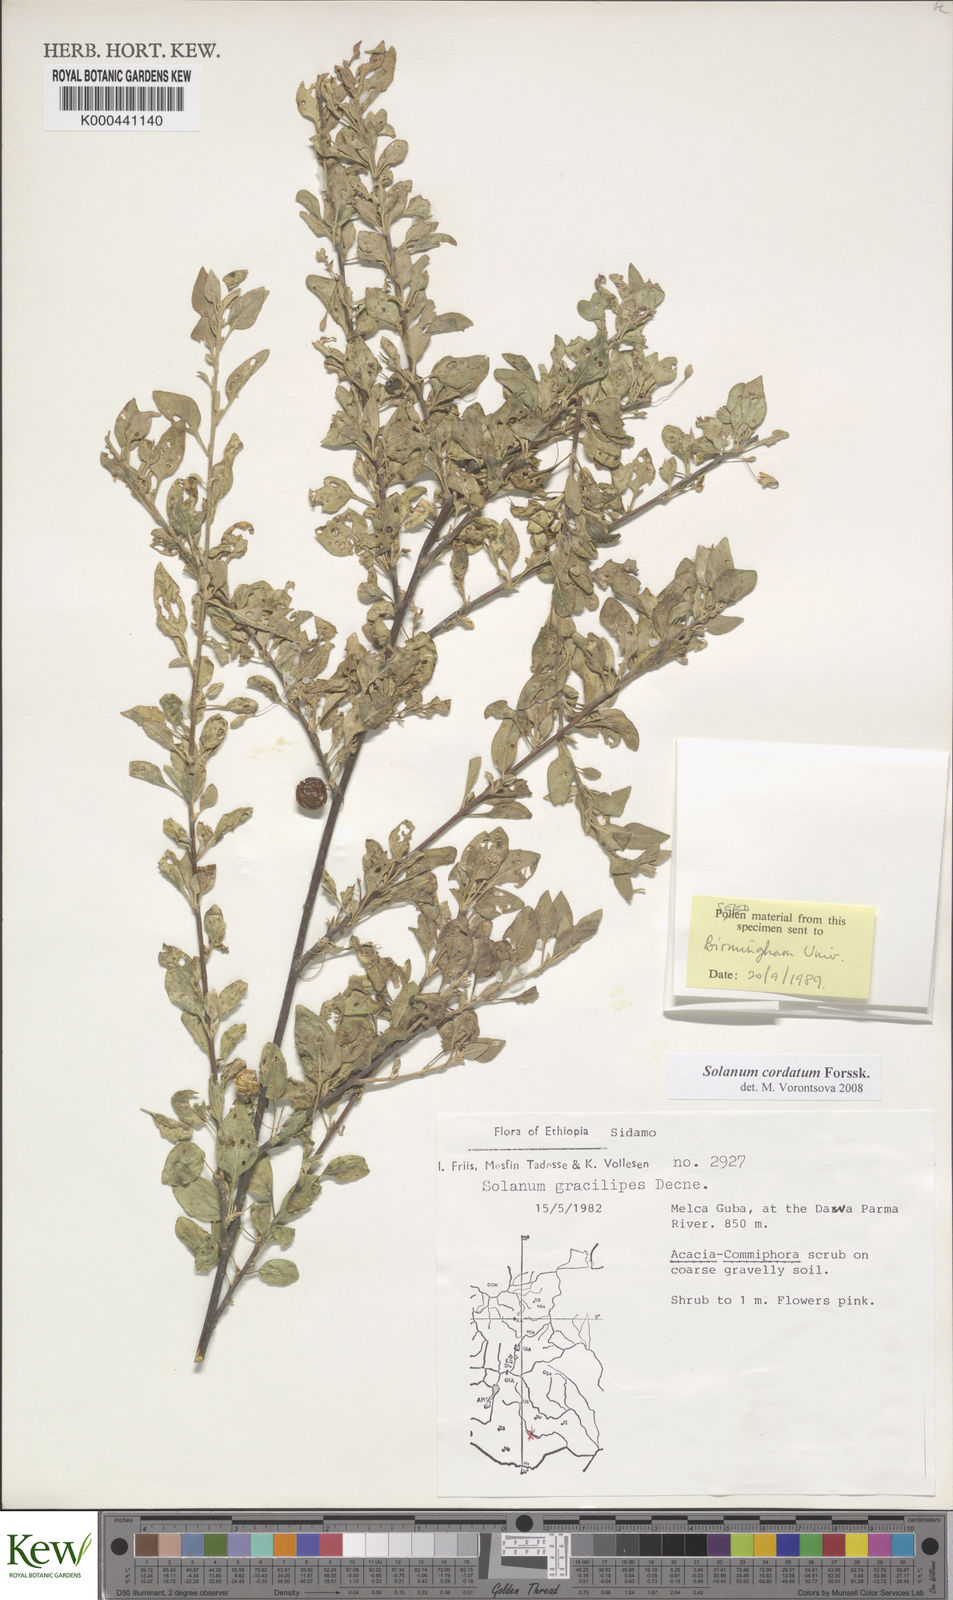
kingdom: Plantae
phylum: Tracheophyta
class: Magnoliopsida
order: Solanales
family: Solanaceae
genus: Solanum
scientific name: Solanum cordatum
